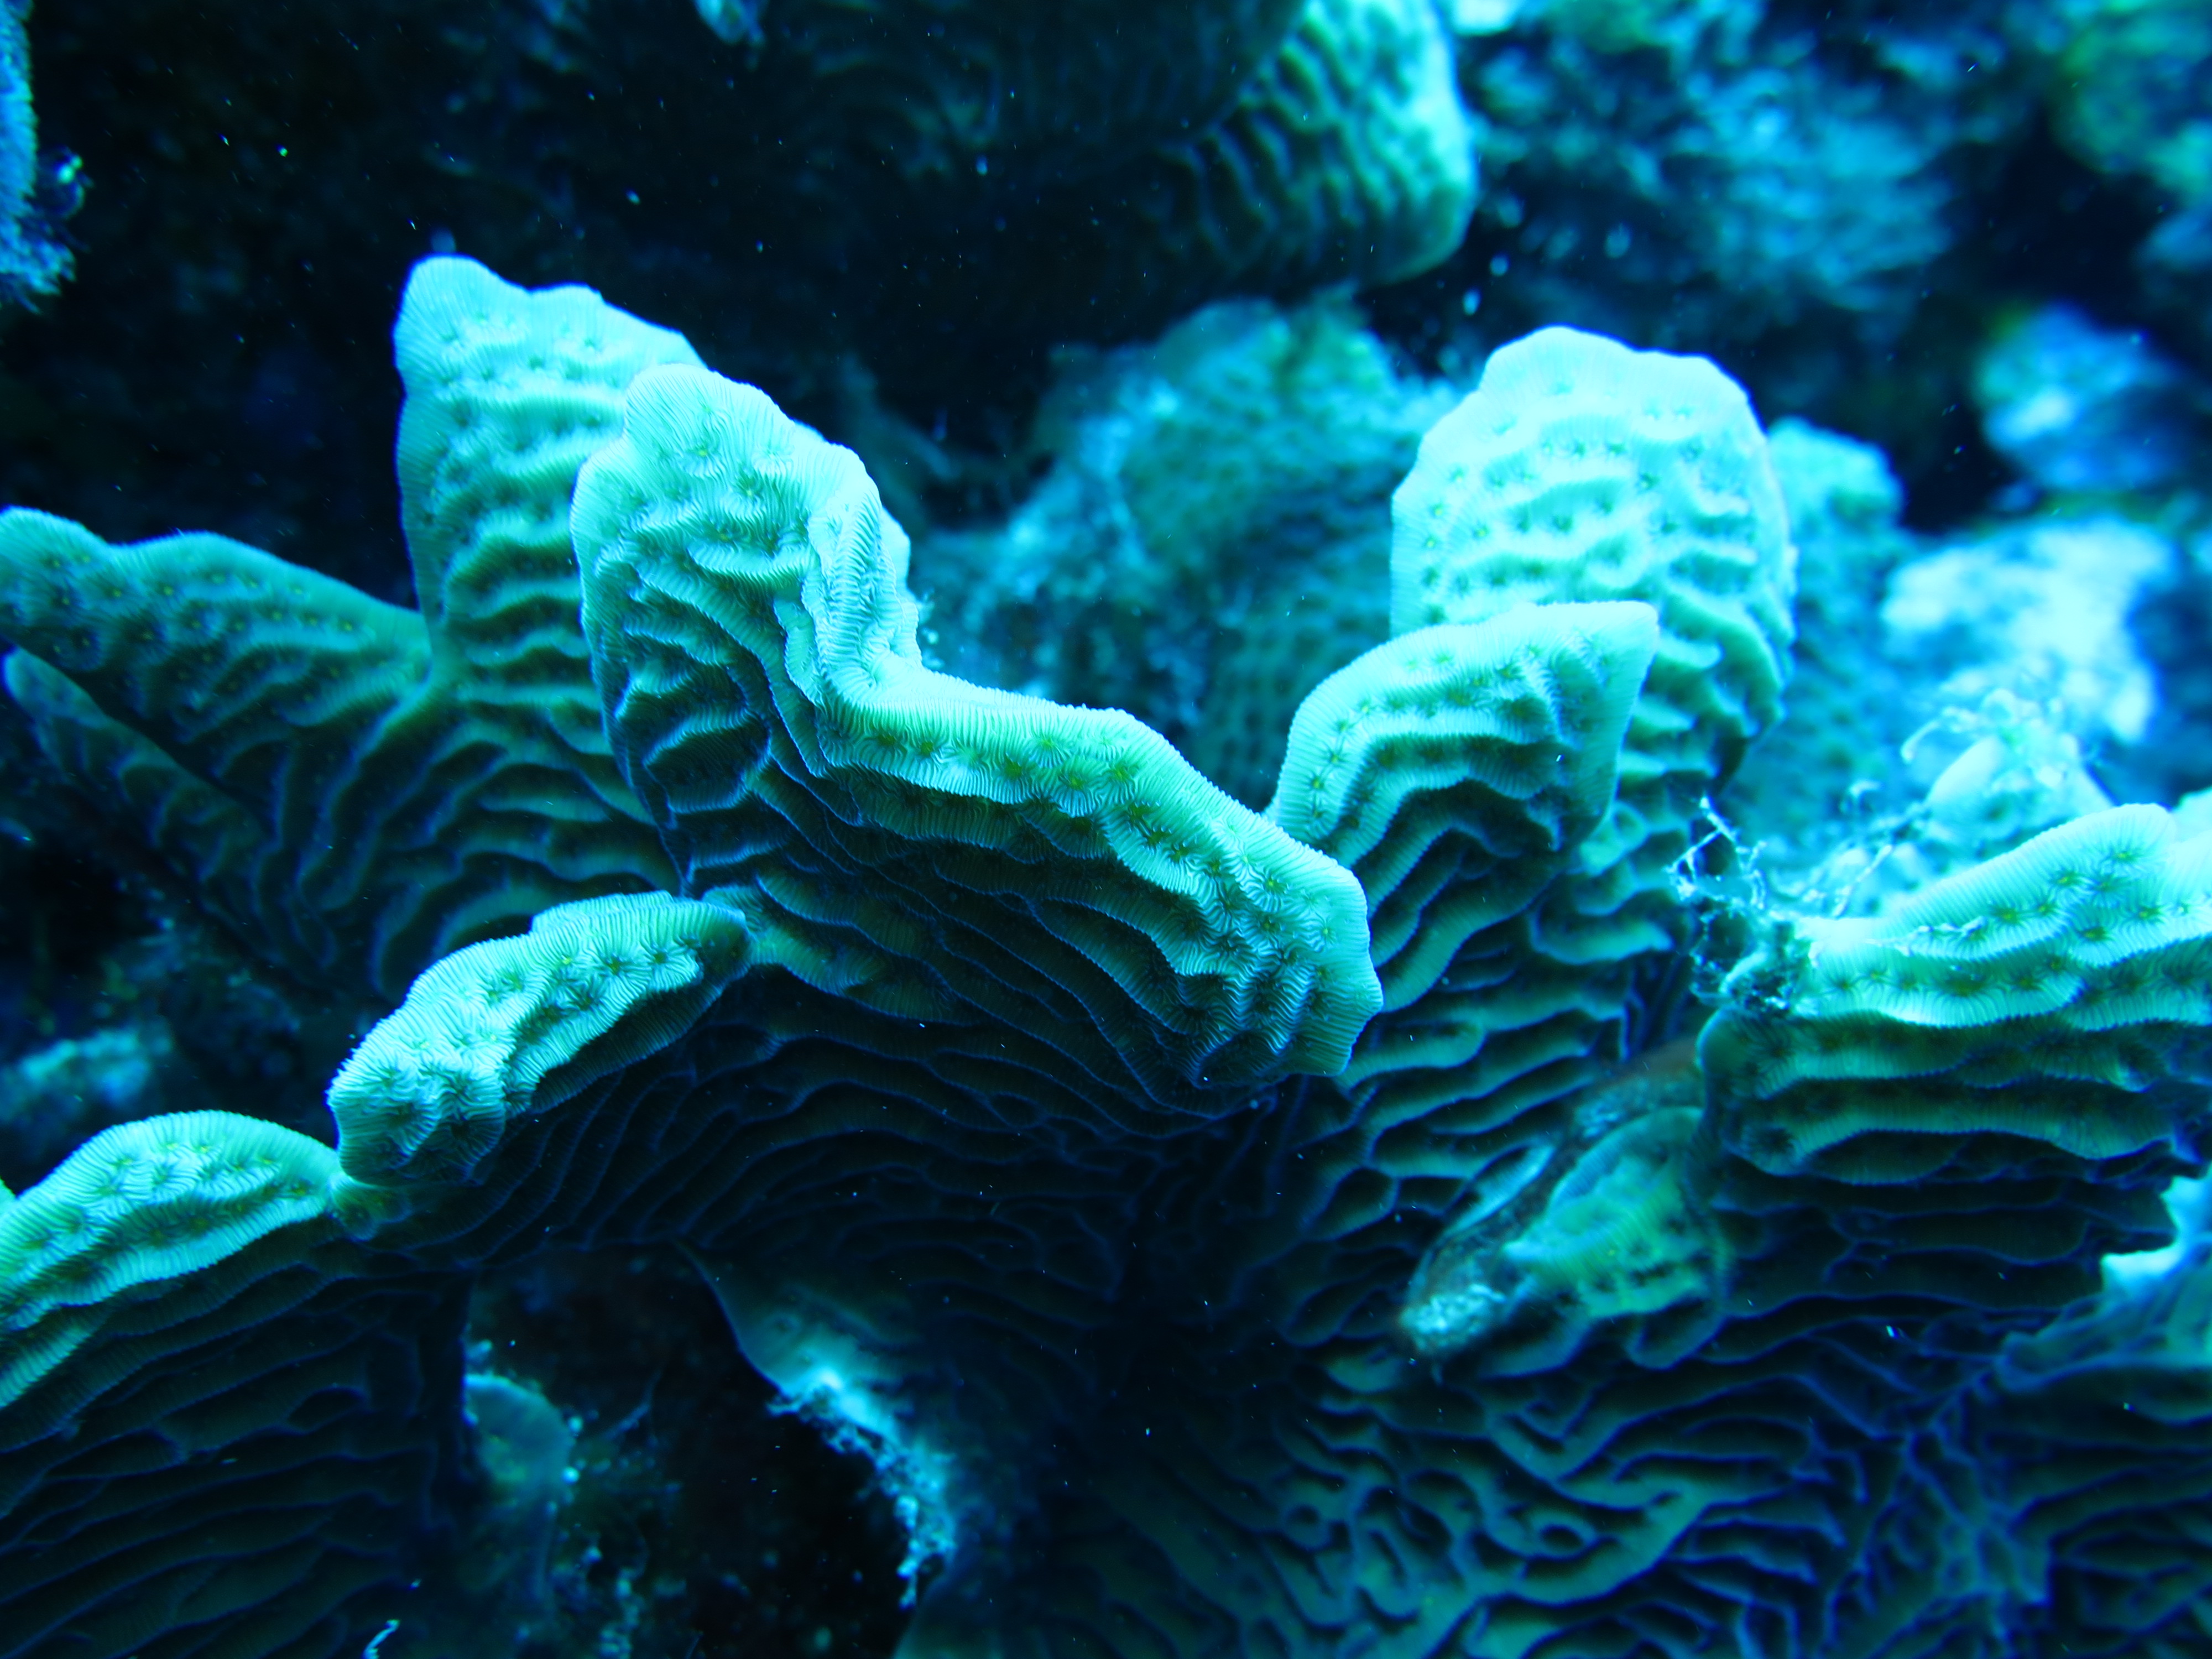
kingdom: Animalia
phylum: Cnidaria
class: Anthozoa
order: Scleractinia
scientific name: Scleractinia
